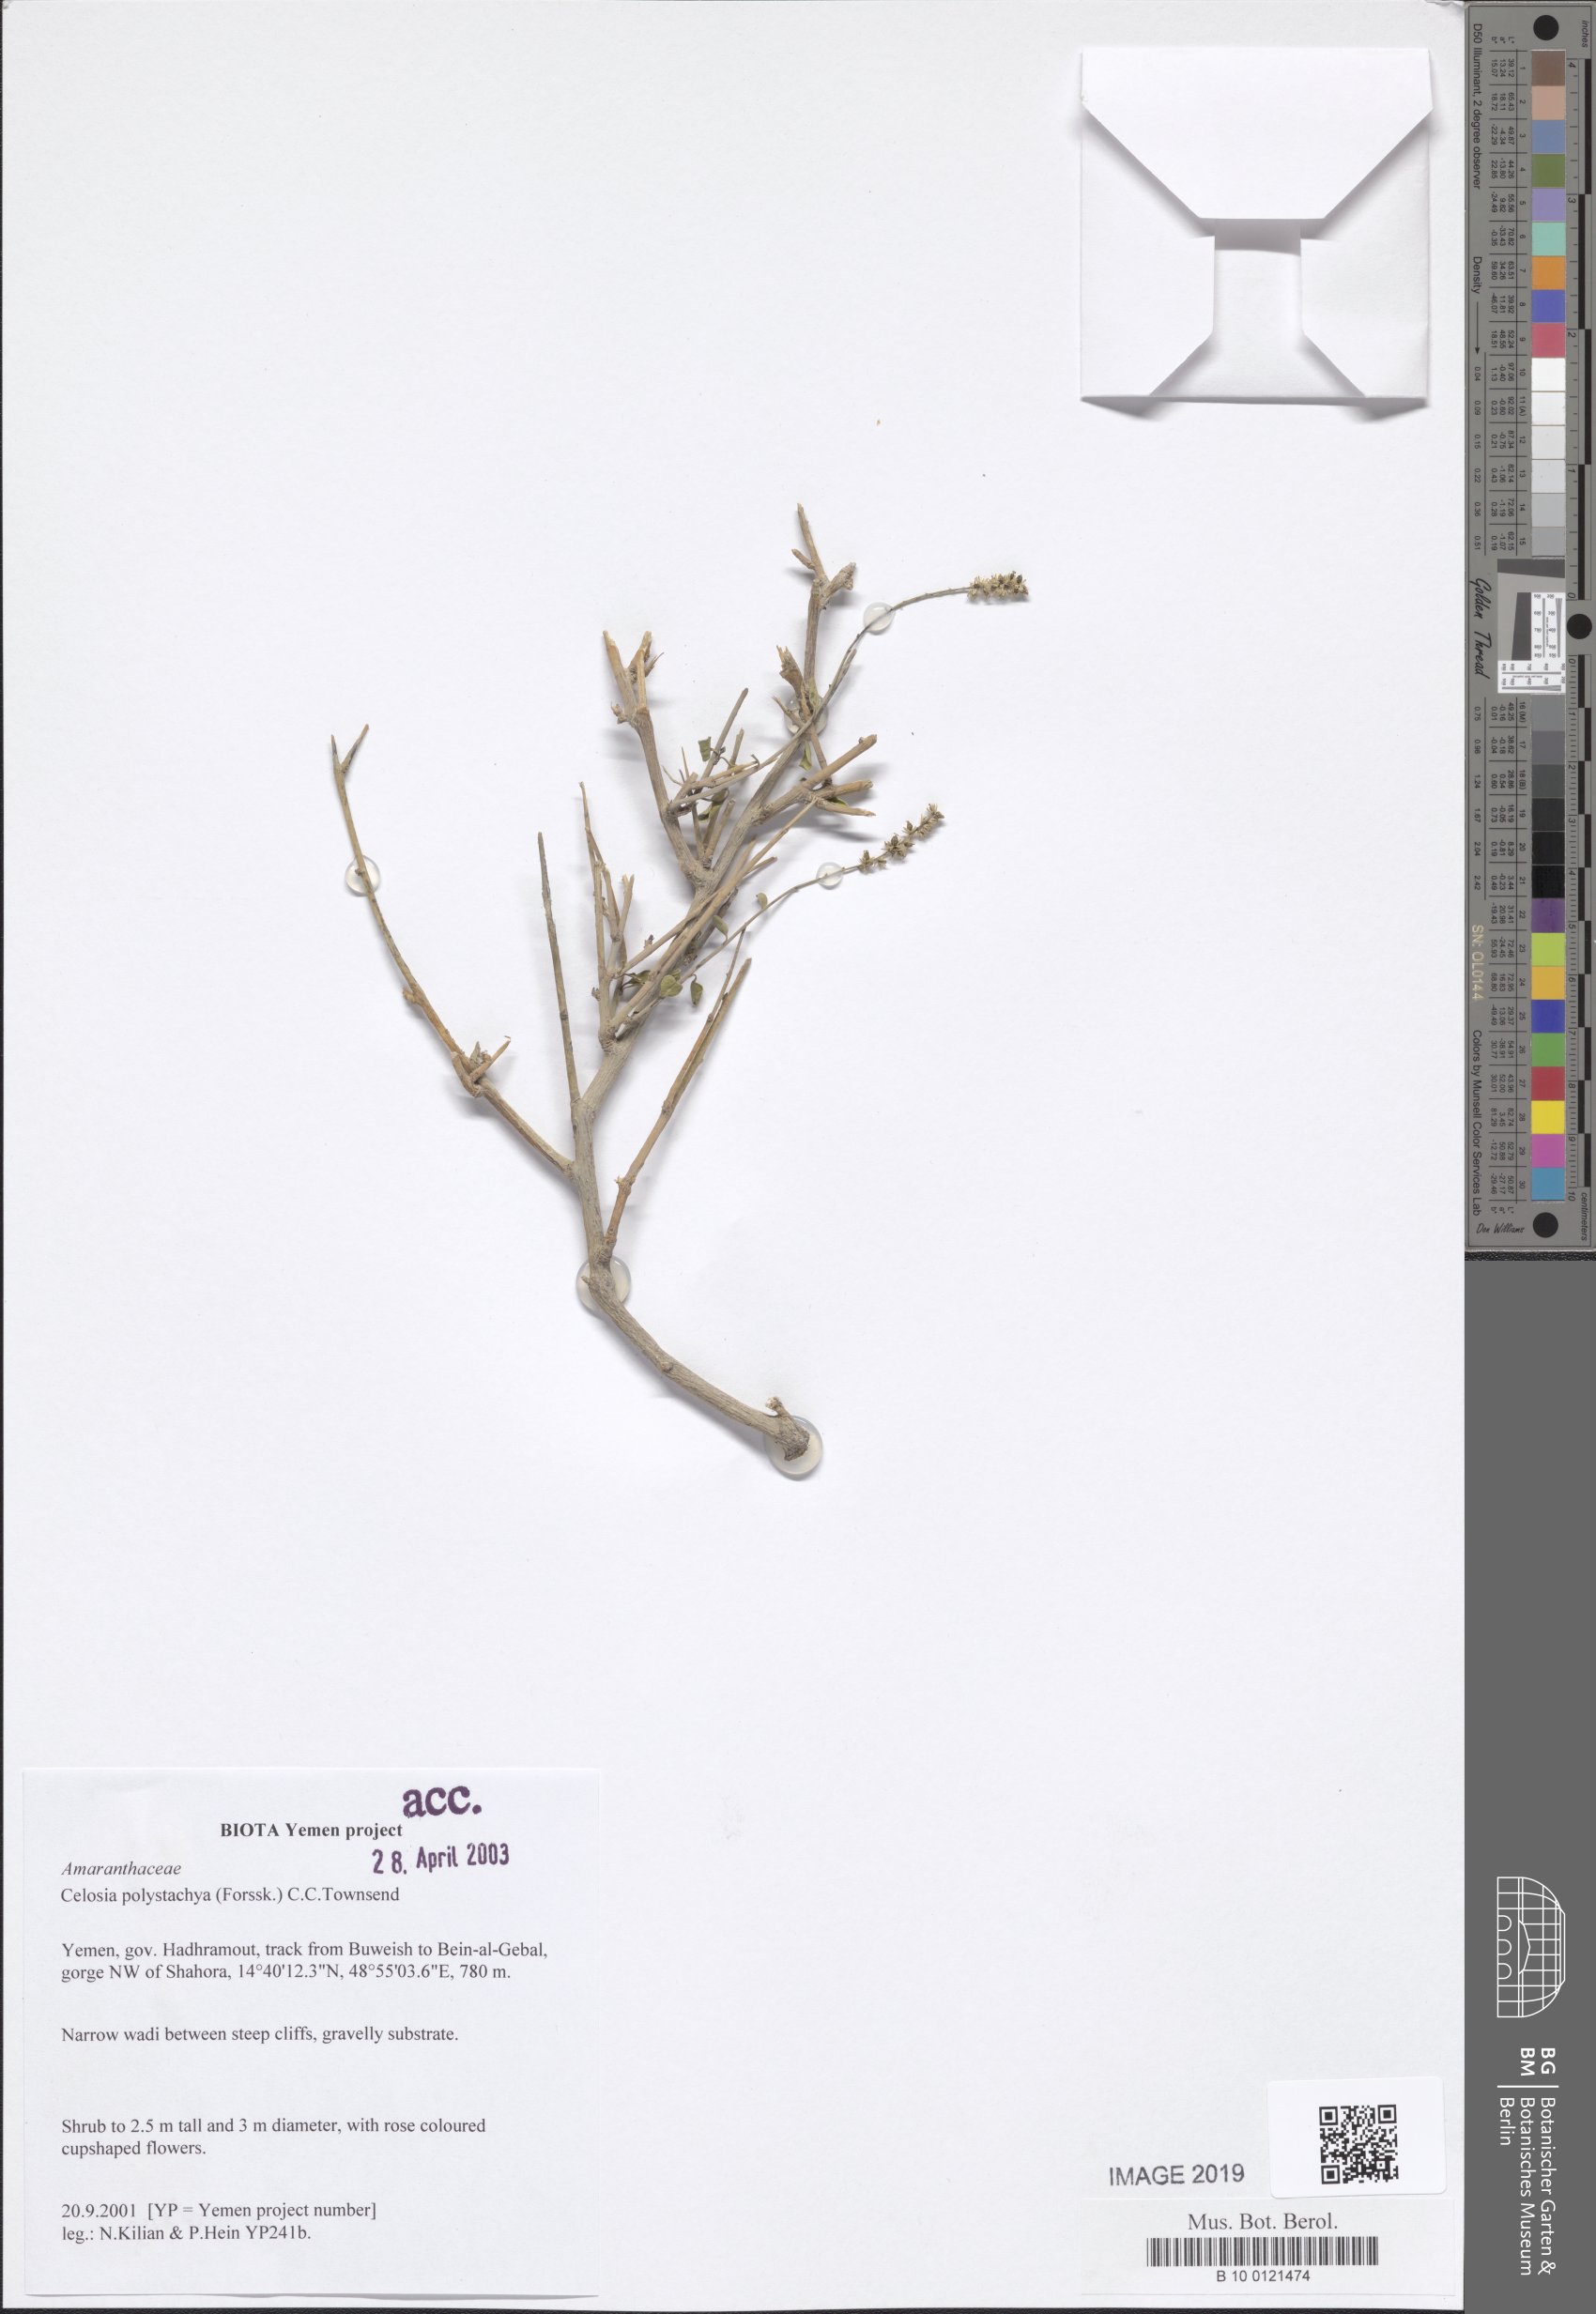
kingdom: Plantae
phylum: Tracheophyta
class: Magnoliopsida
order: Caryophyllales
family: Amaranthaceae
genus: Celosia
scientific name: Celosia polystachya
